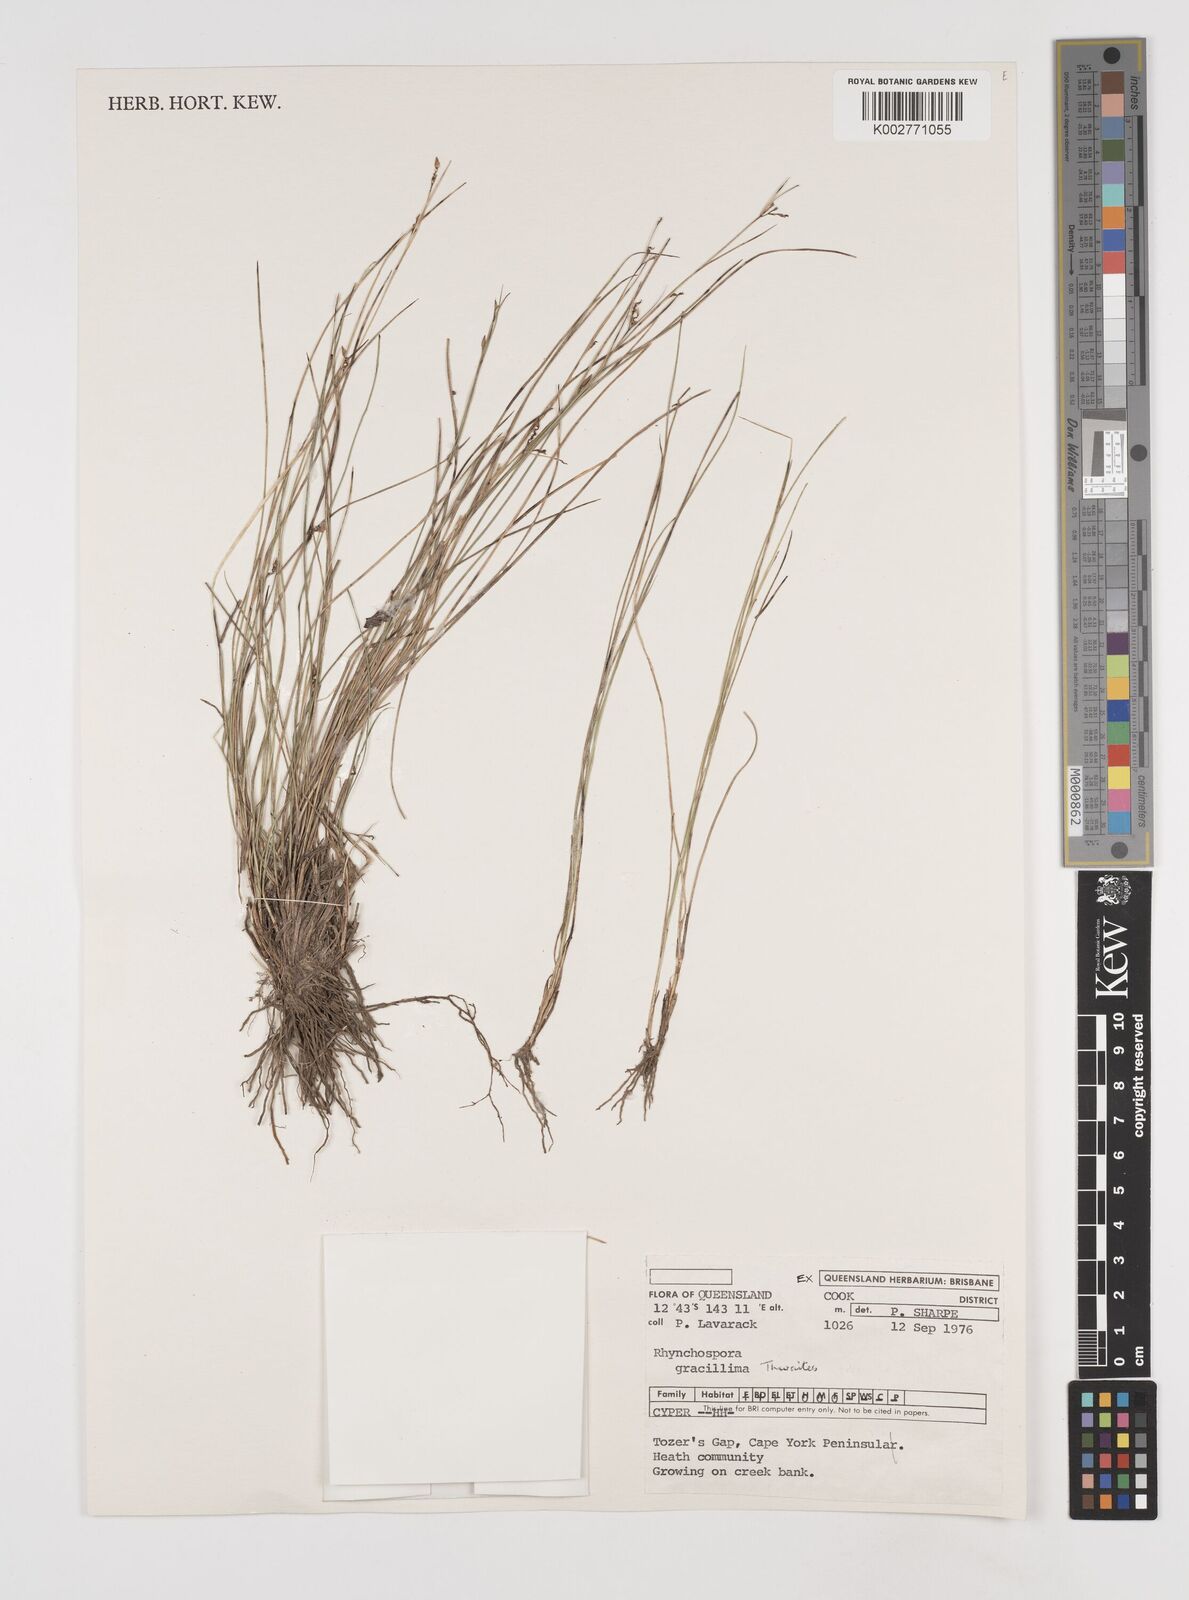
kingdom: Plantae
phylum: Tracheophyta
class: Liliopsida
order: Poales
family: Cyperaceae
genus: Rhynchospora
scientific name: Rhynchospora gracillima
